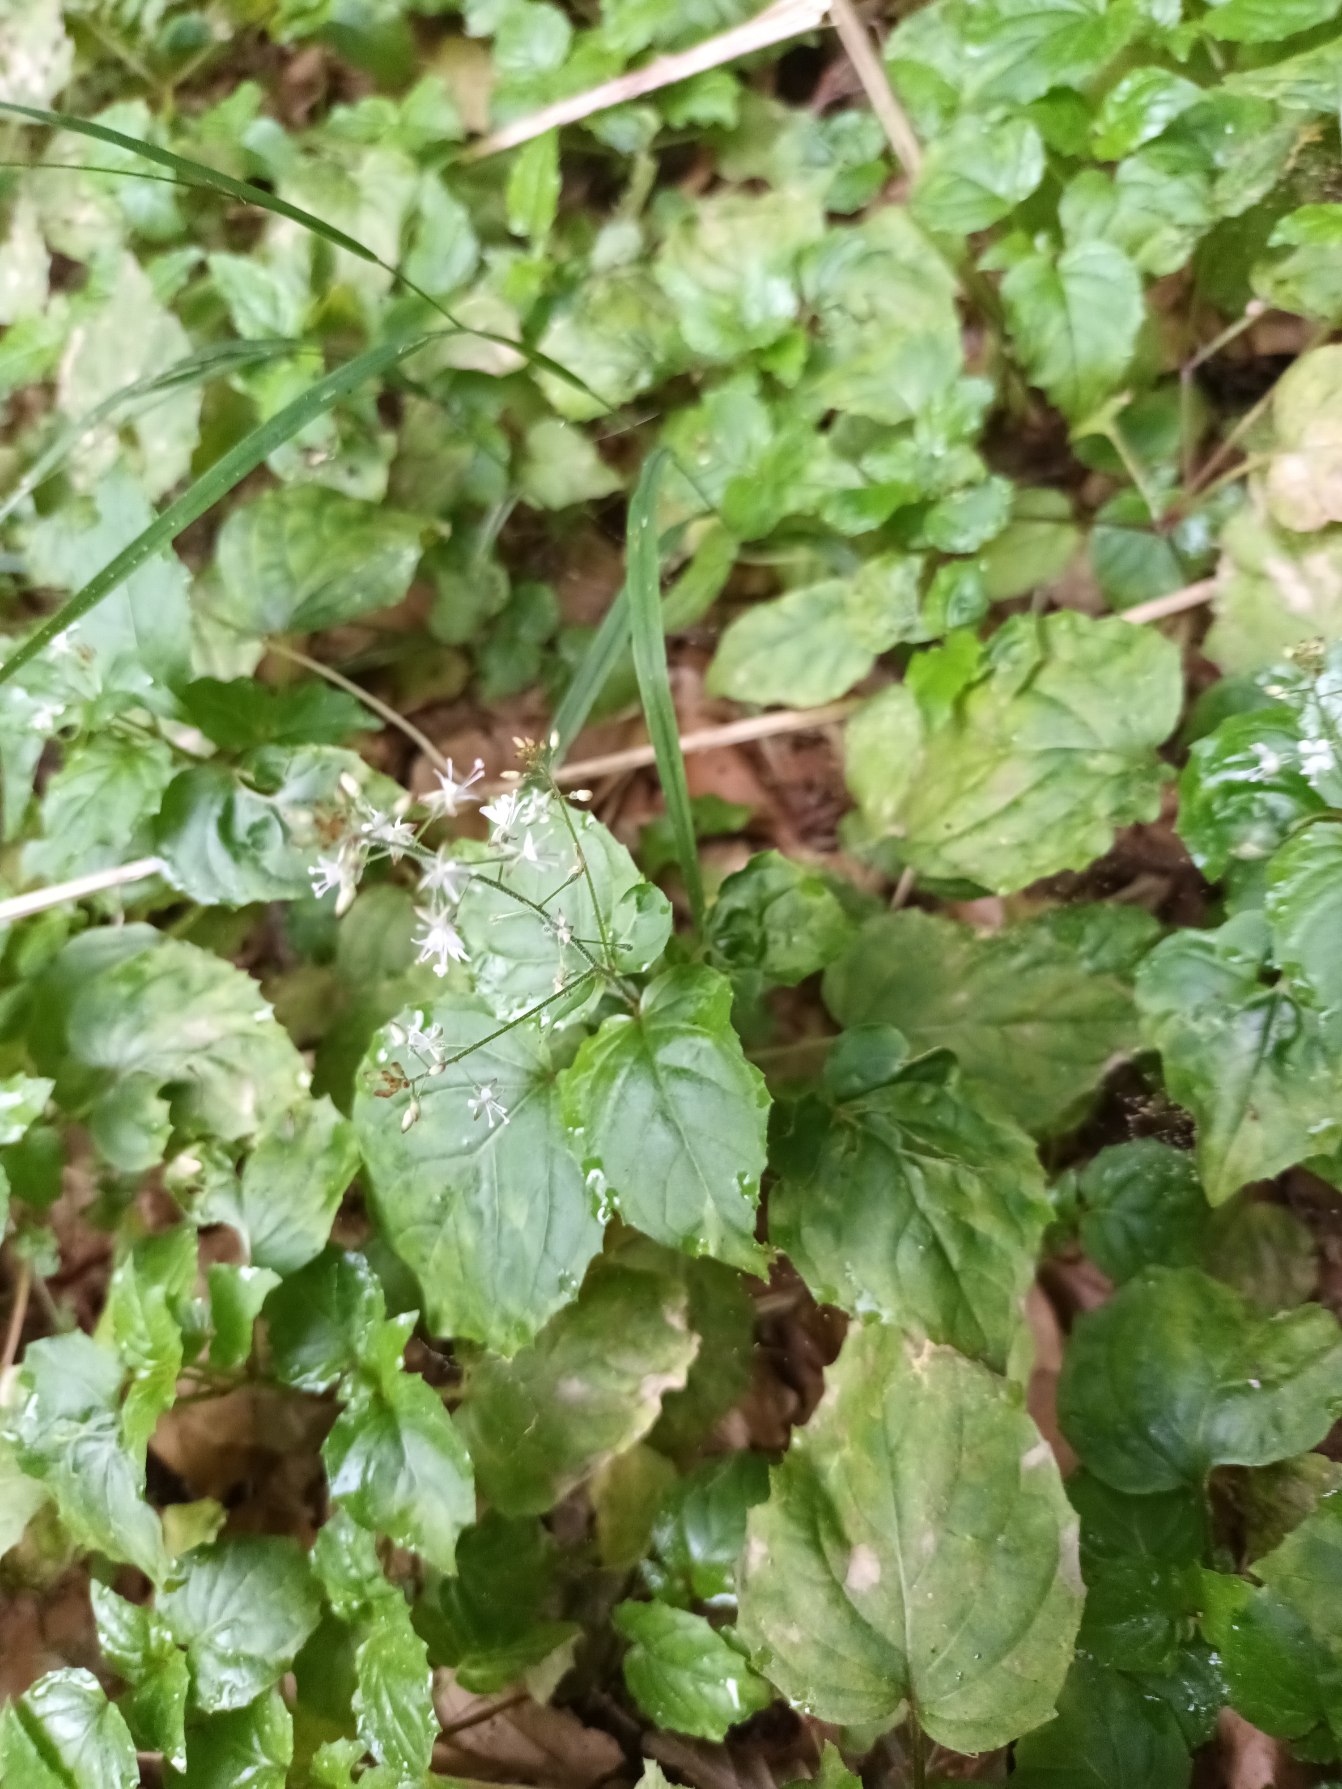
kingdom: Plantae
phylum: Tracheophyta
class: Magnoliopsida
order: Myrtales
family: Onagraceae
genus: Circaea
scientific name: Circaea intermedia
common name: Spidsbladet steffensurt
